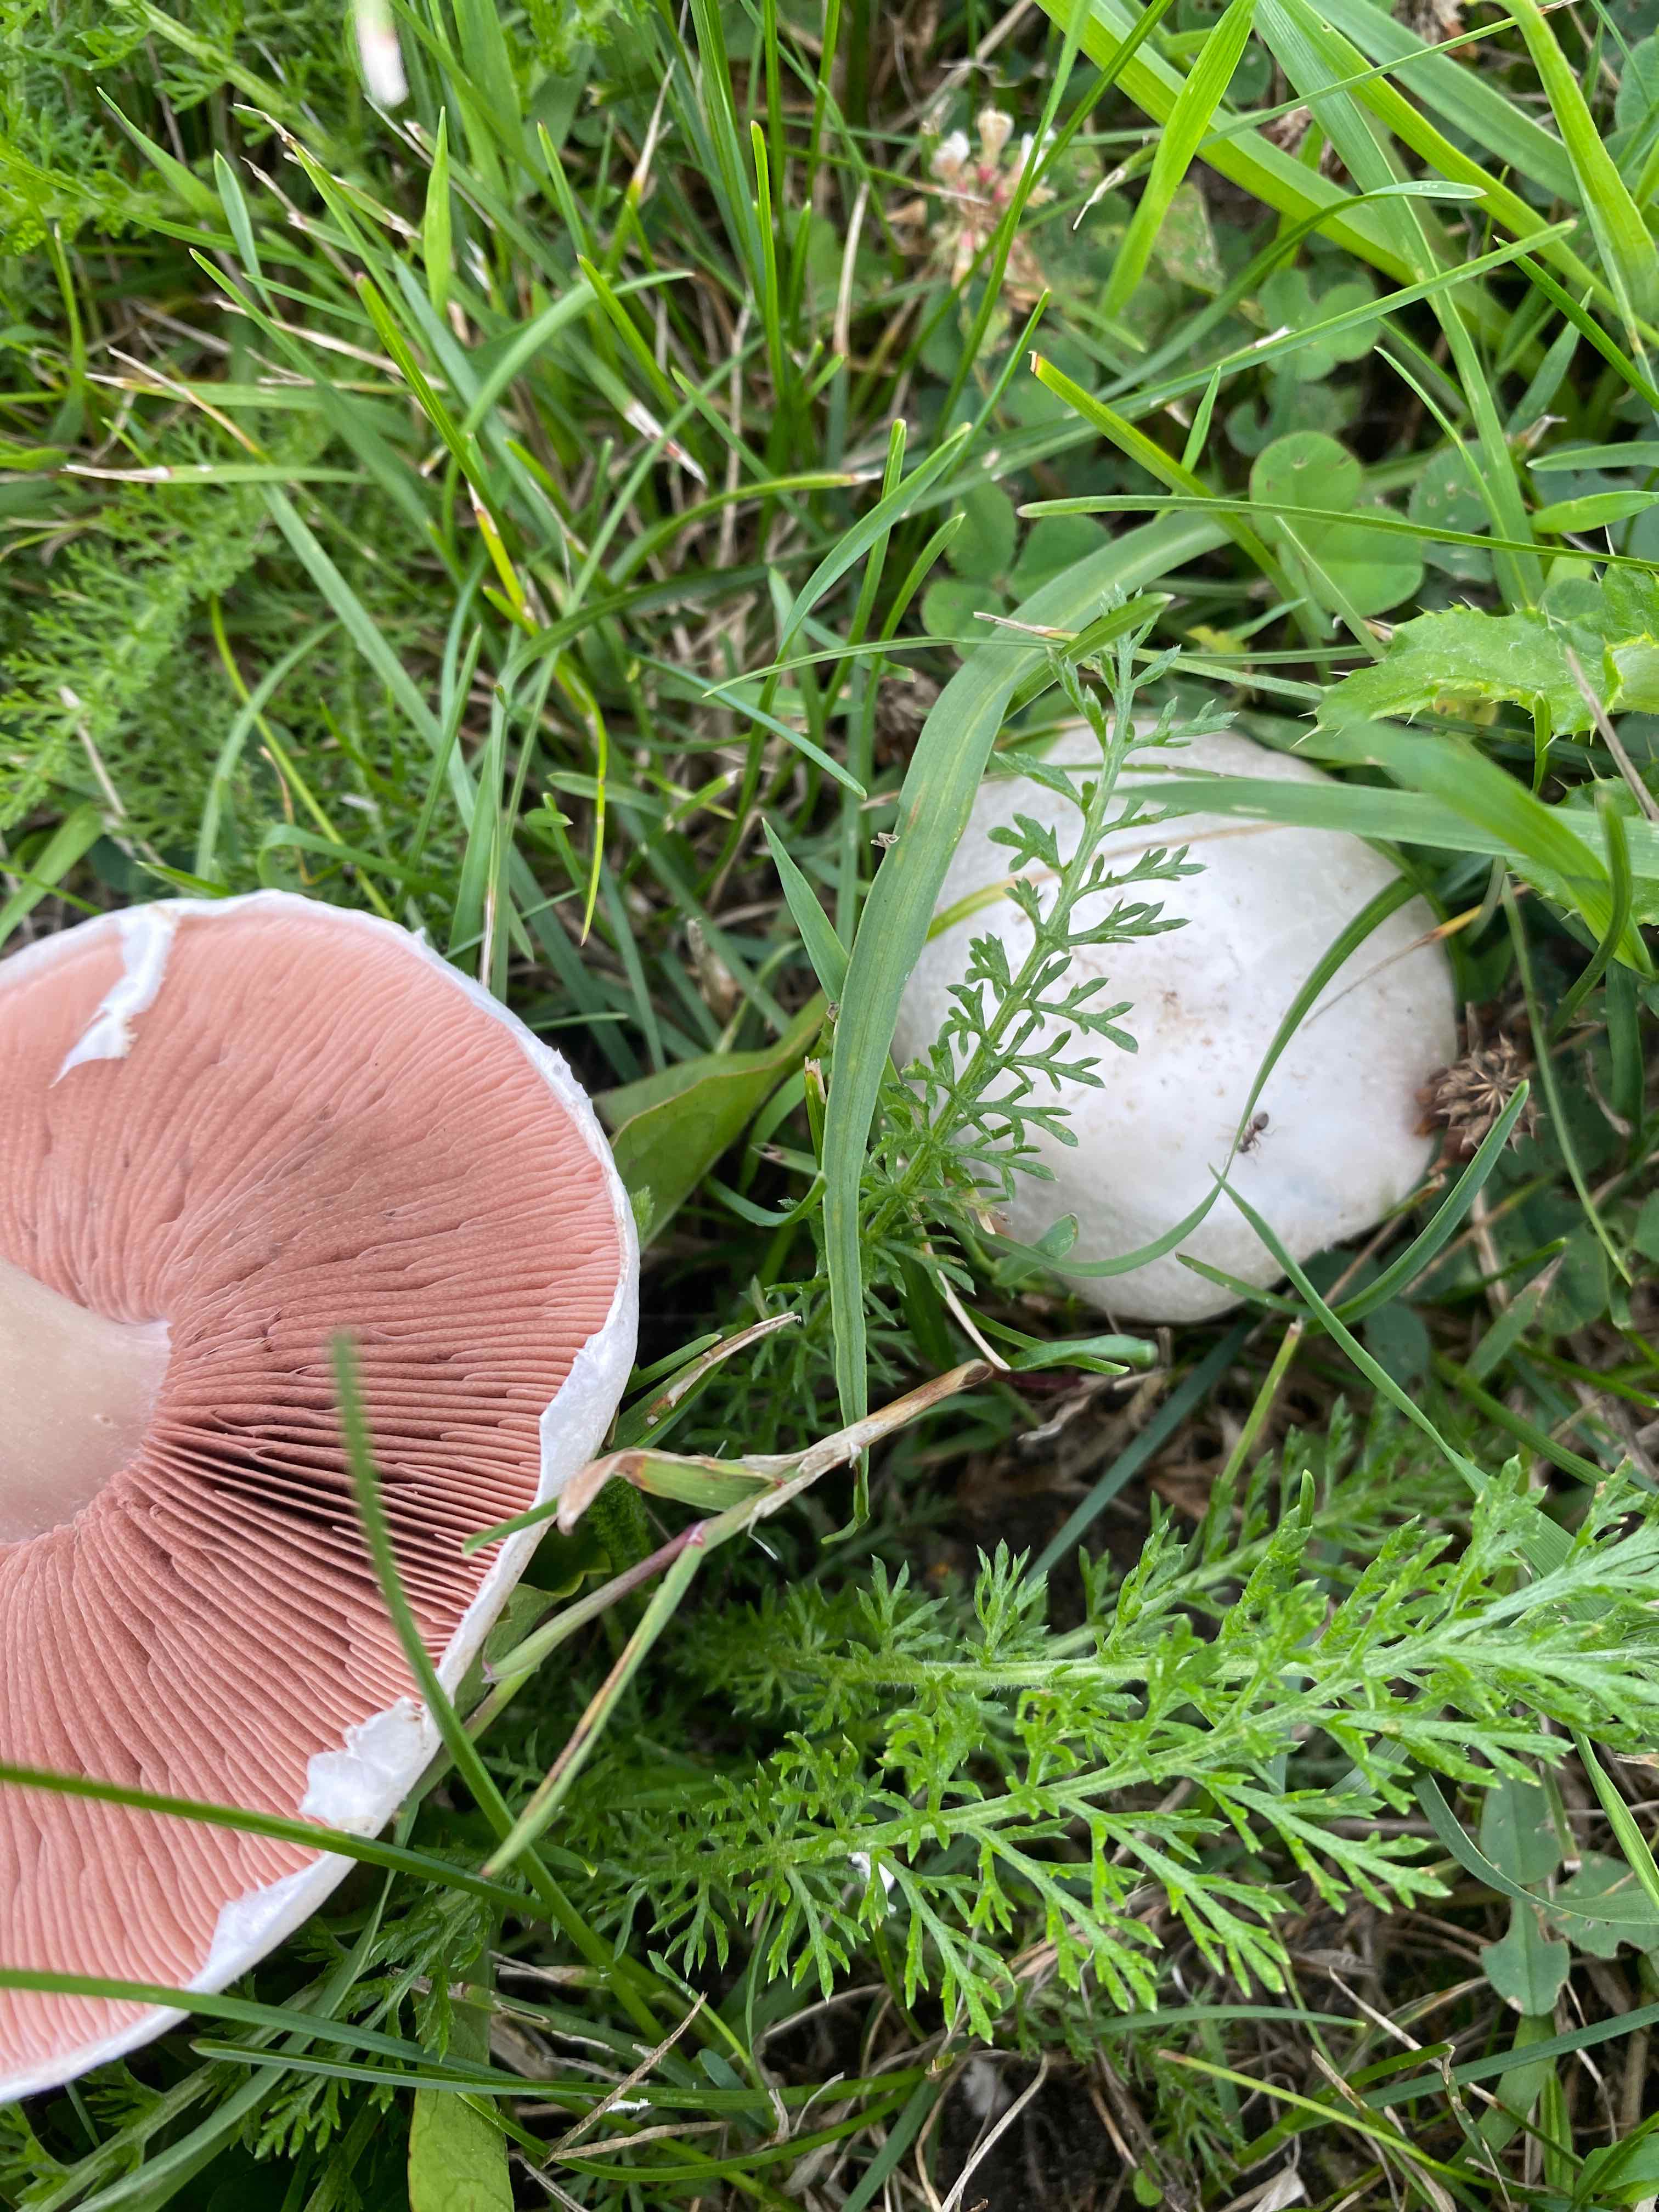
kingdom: Fungi
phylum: Basidiomycota
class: Agaricomycetes
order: Agaricales
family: Agaricaceae
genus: Agaricus
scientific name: Agaricus campestris
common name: mark-champignon
